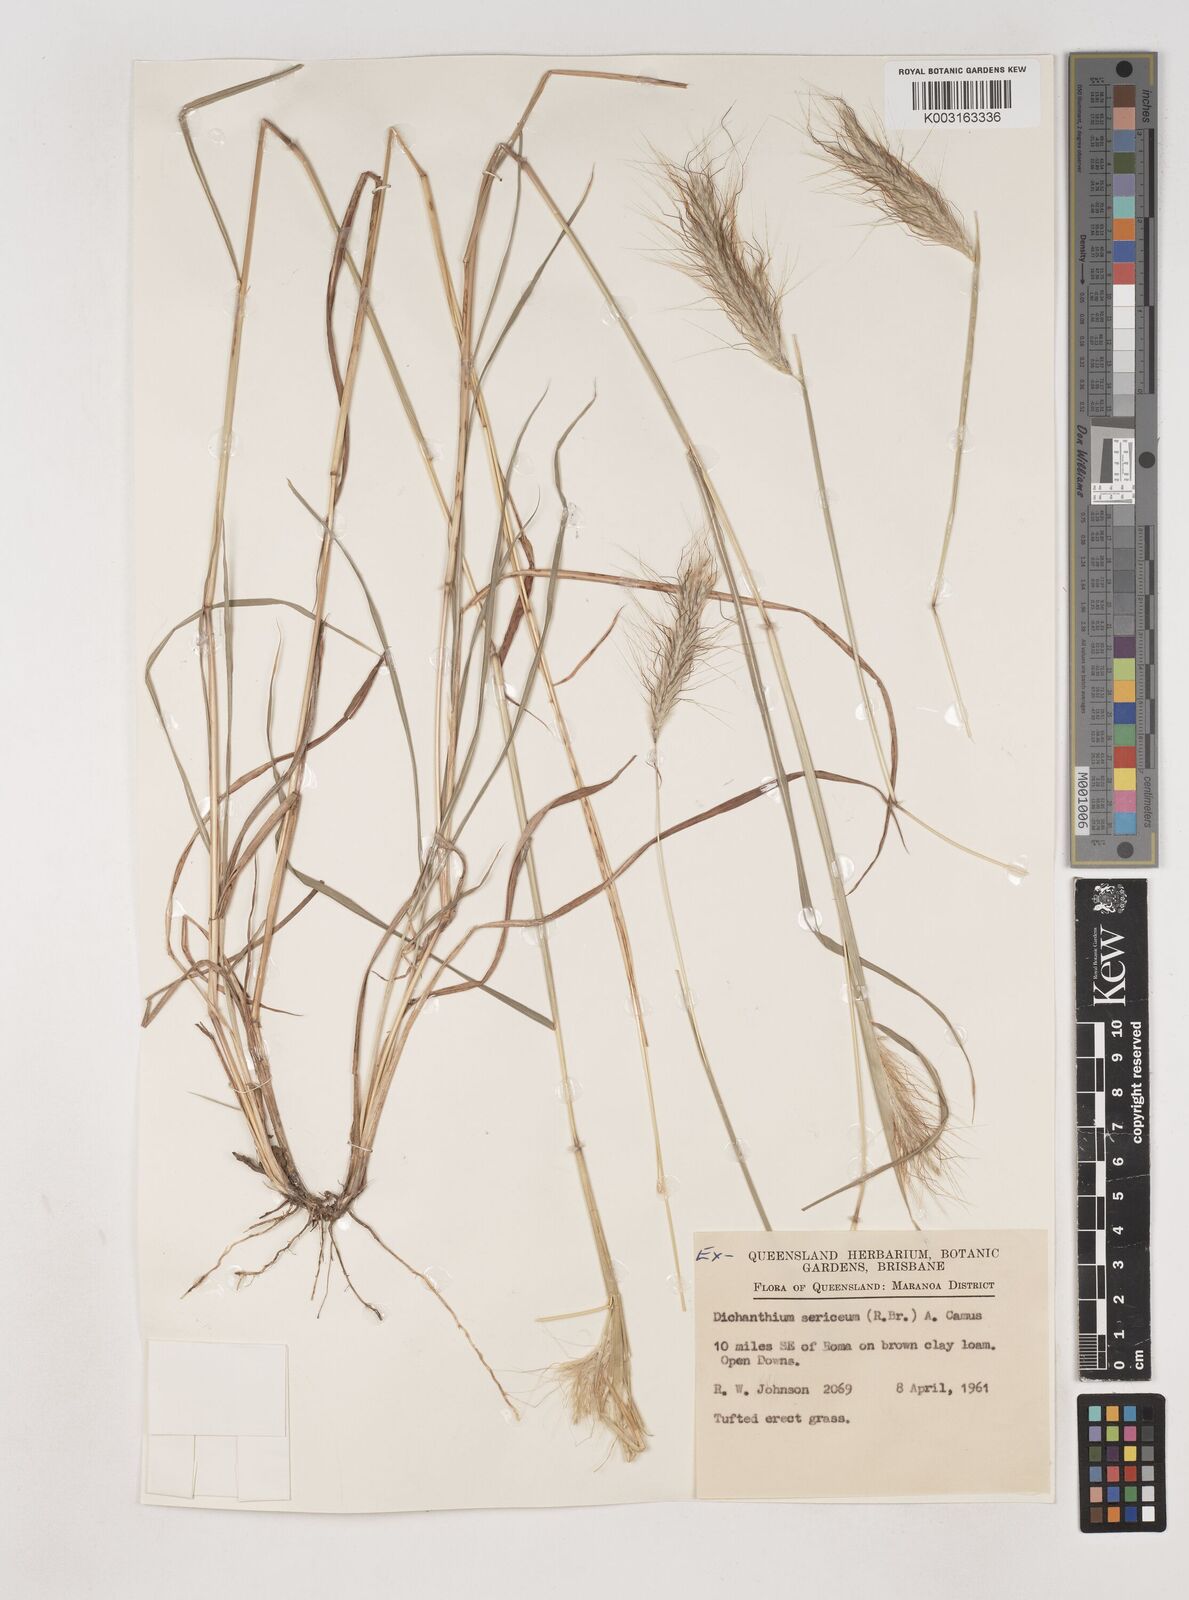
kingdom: Plantae
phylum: Tracheophyta
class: Liliopsida
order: Poales
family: Poaceae
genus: Dichanthium
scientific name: Dichanthium sericeum
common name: Silky bluestem
